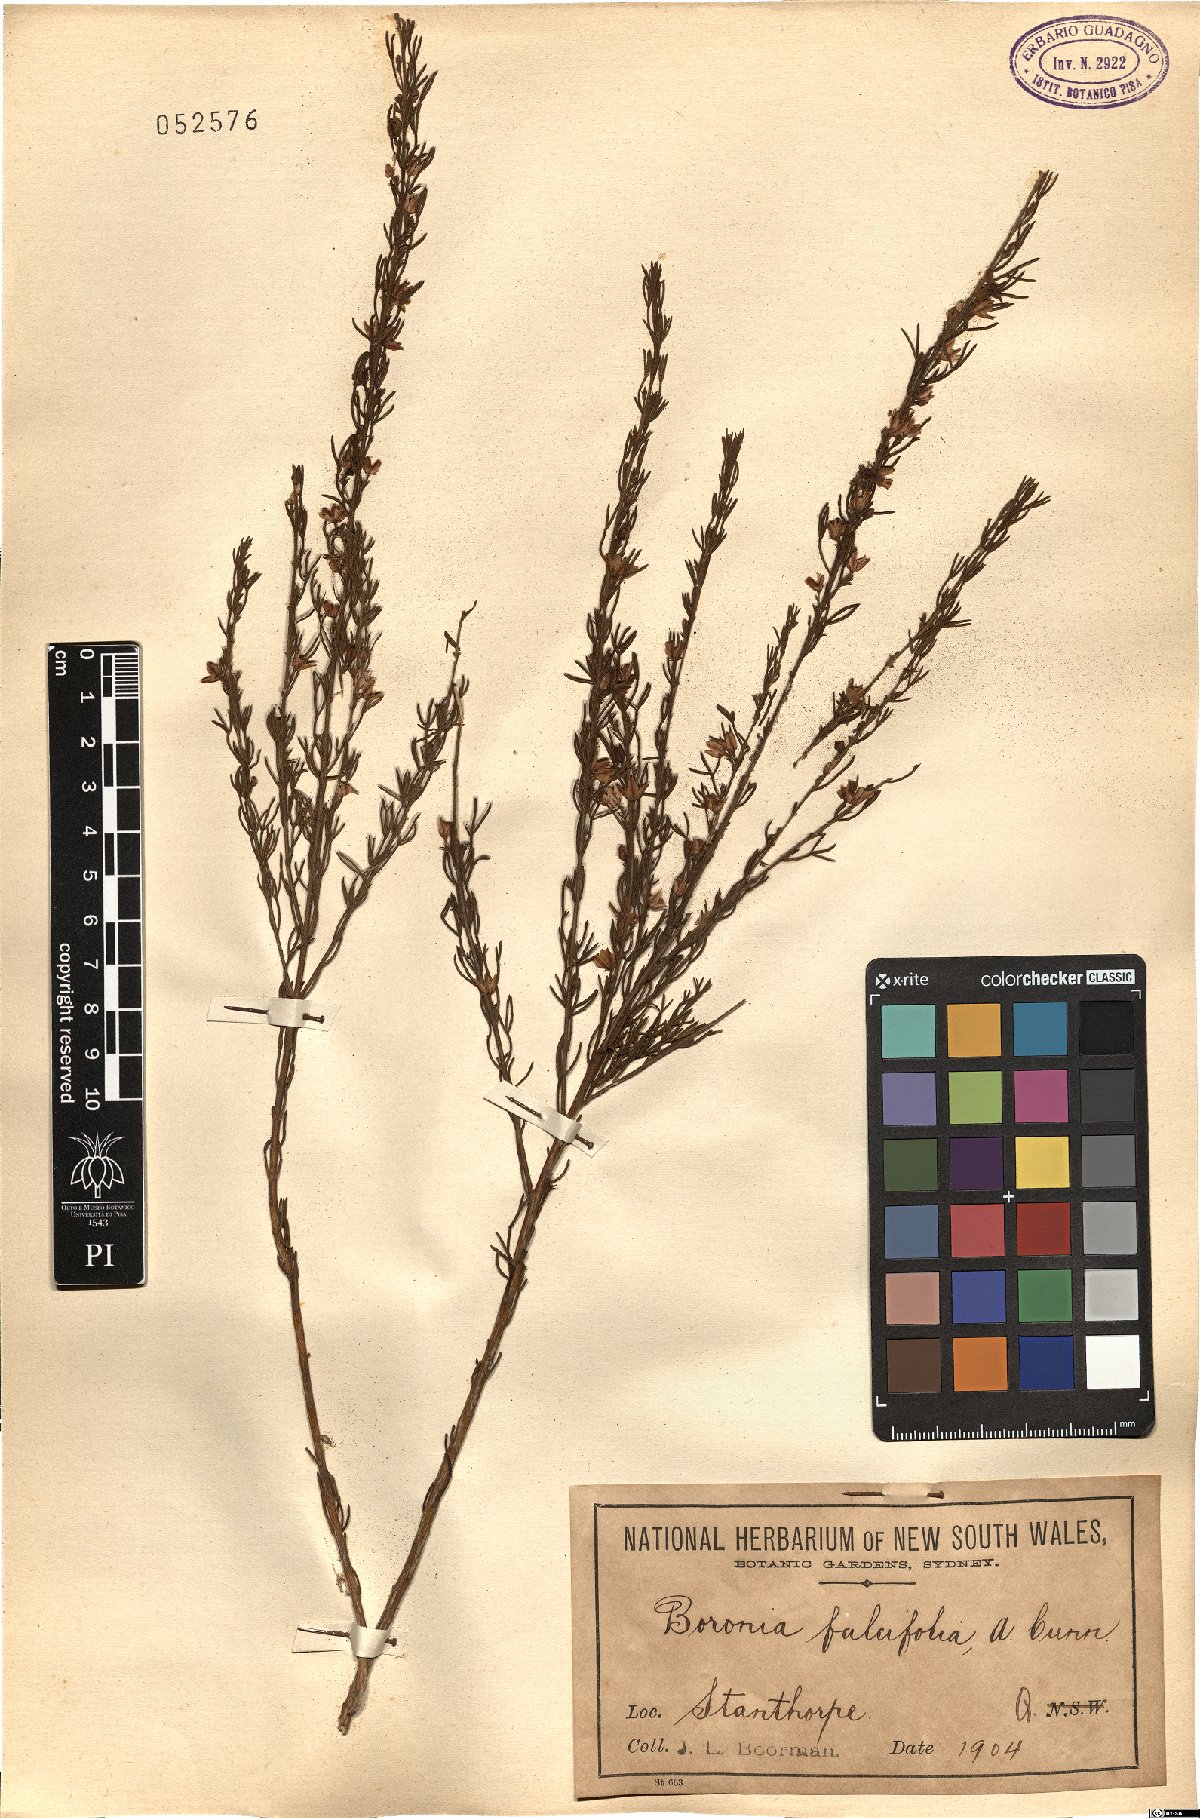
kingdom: Plantae
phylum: Tracheophyta
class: Magnoliopsida
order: Sapindales
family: Rutaceae
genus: Boronia
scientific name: Boronia falcifolia
